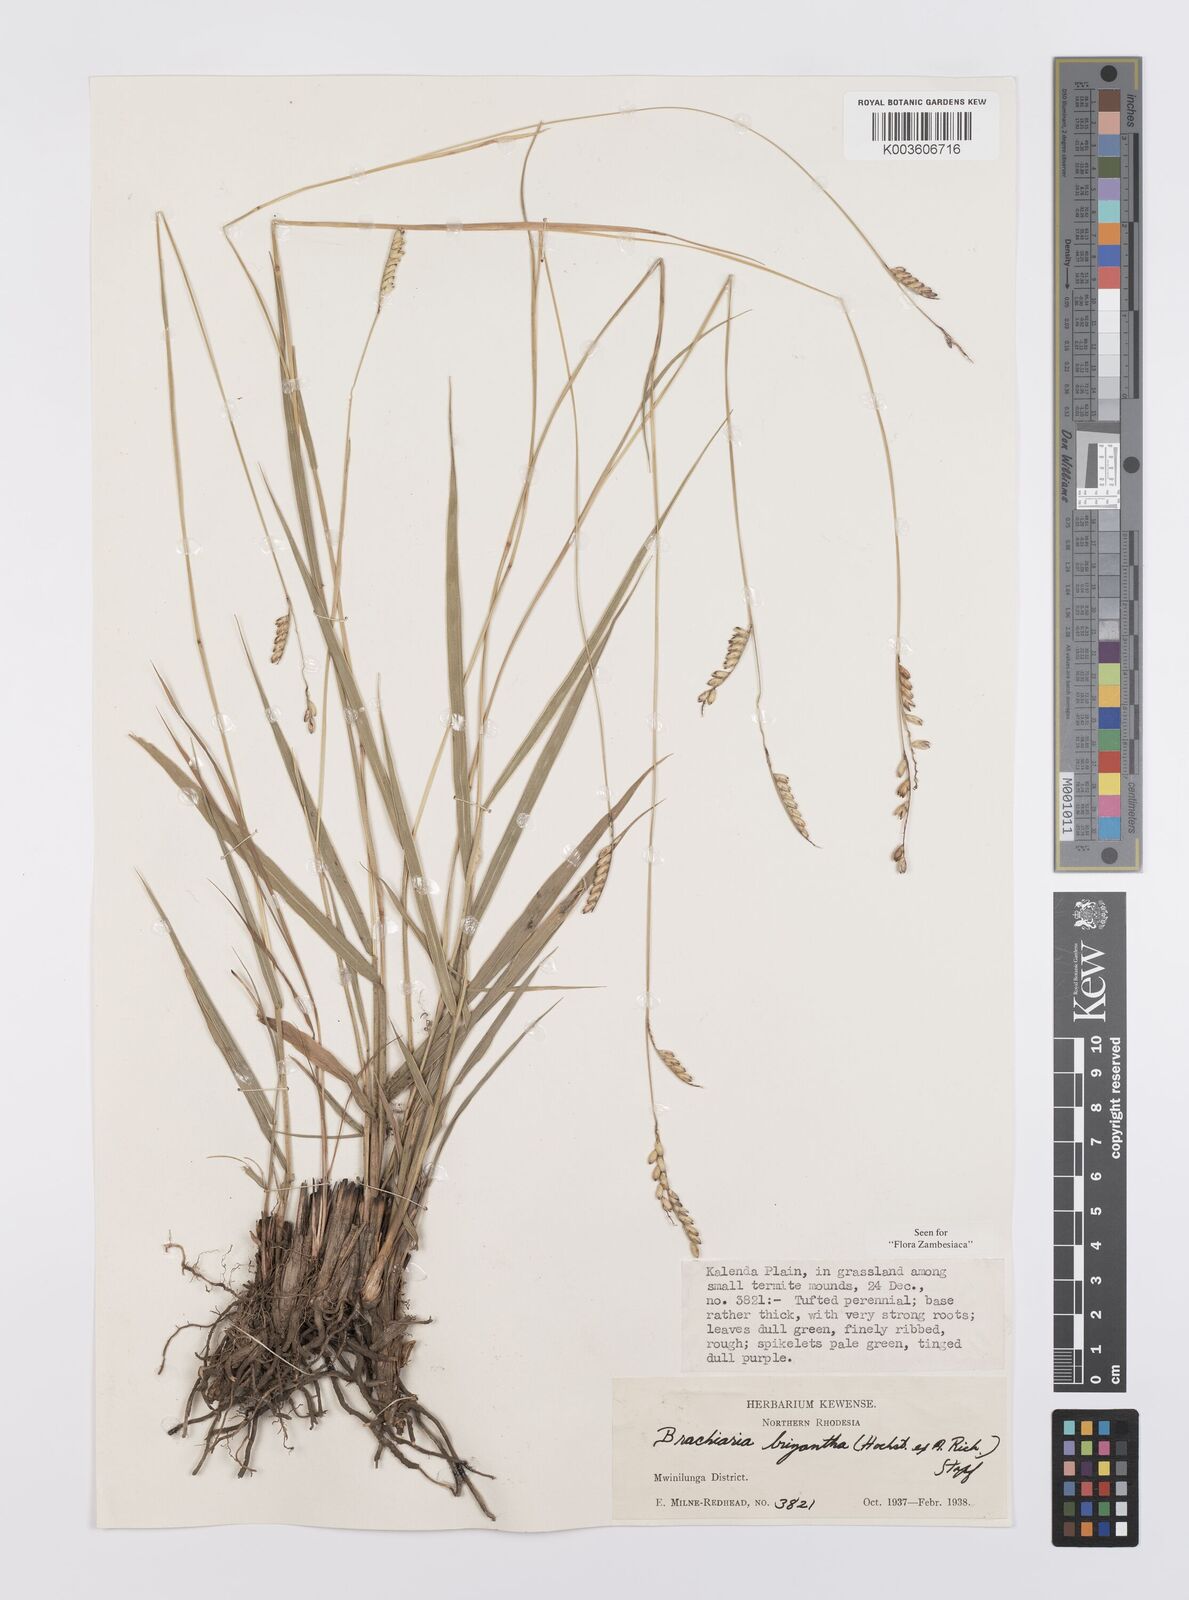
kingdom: Plantae
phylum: Tracheophyta
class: Liliopsida
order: Poales
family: Poaceae
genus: Urochloa
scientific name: Urochloa brizantha
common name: Palisade signalgrass
